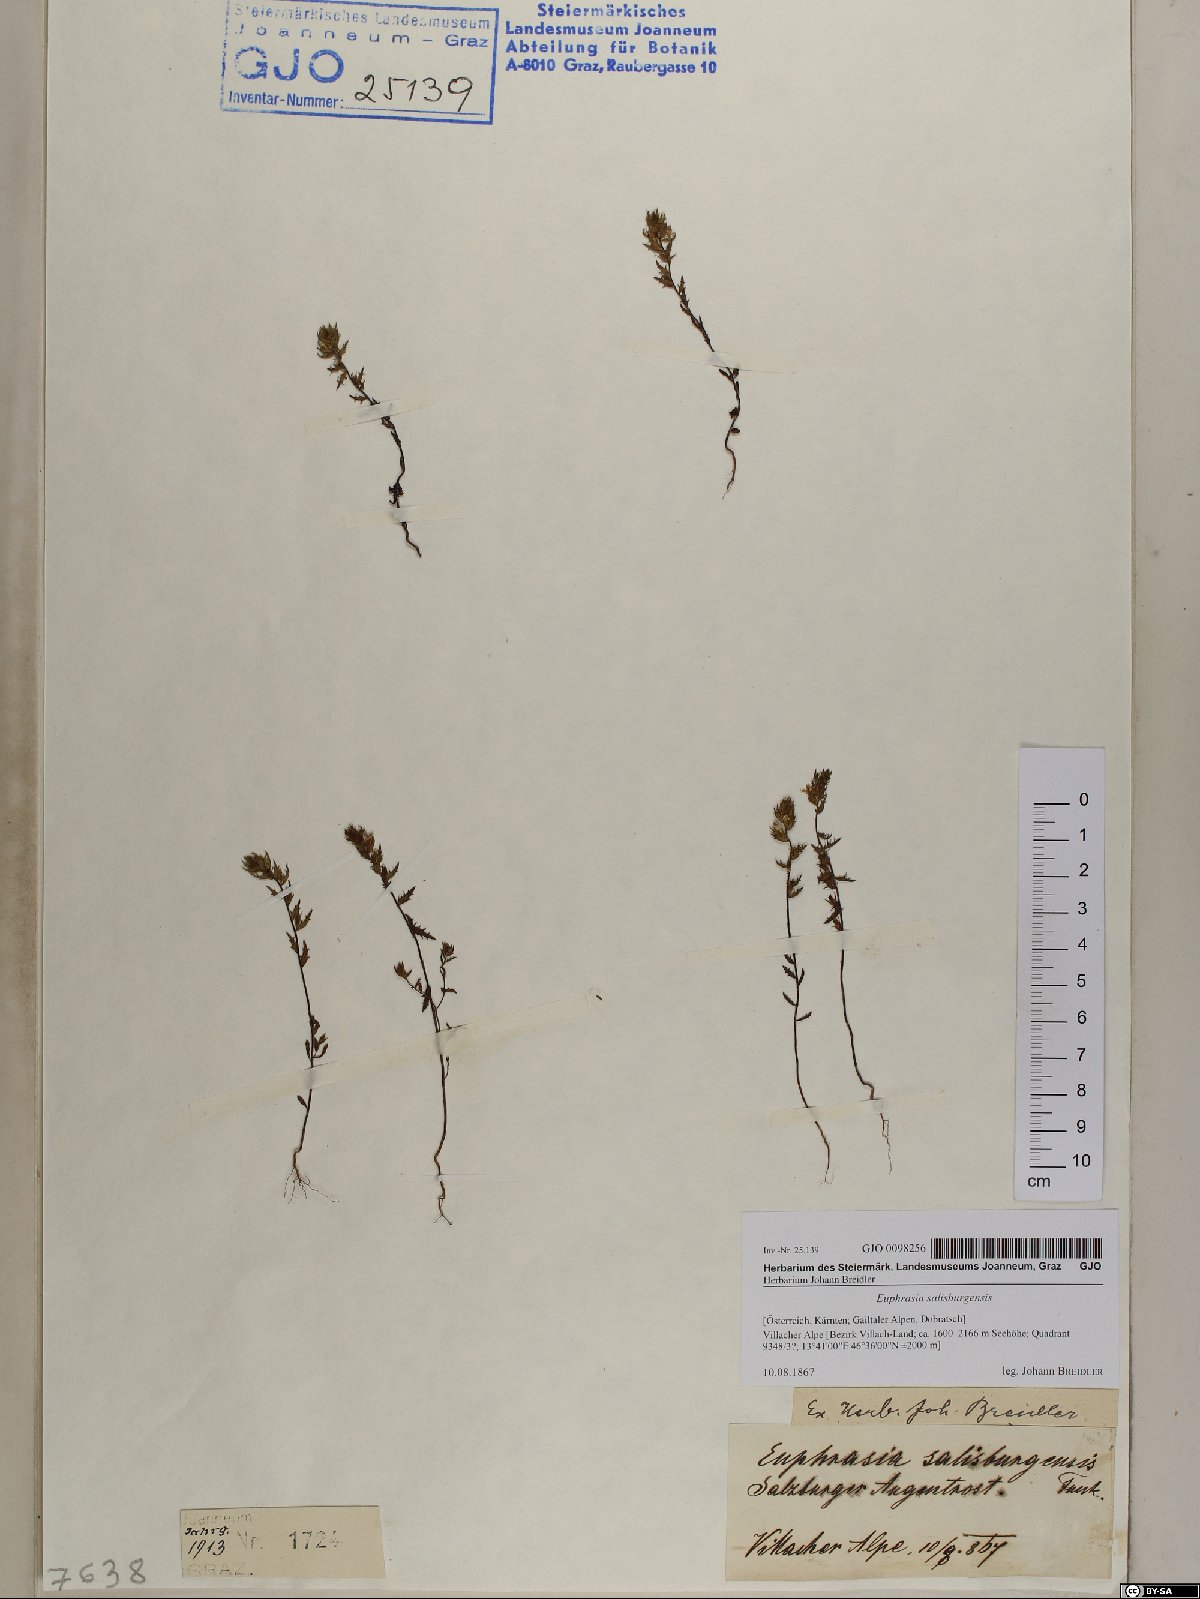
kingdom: Plantae
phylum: Tracheophyta
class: Magnoliopsida
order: Lamiales
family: Orobanchaceae
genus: Euphrasia
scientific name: Euphrasia salisburgensis
